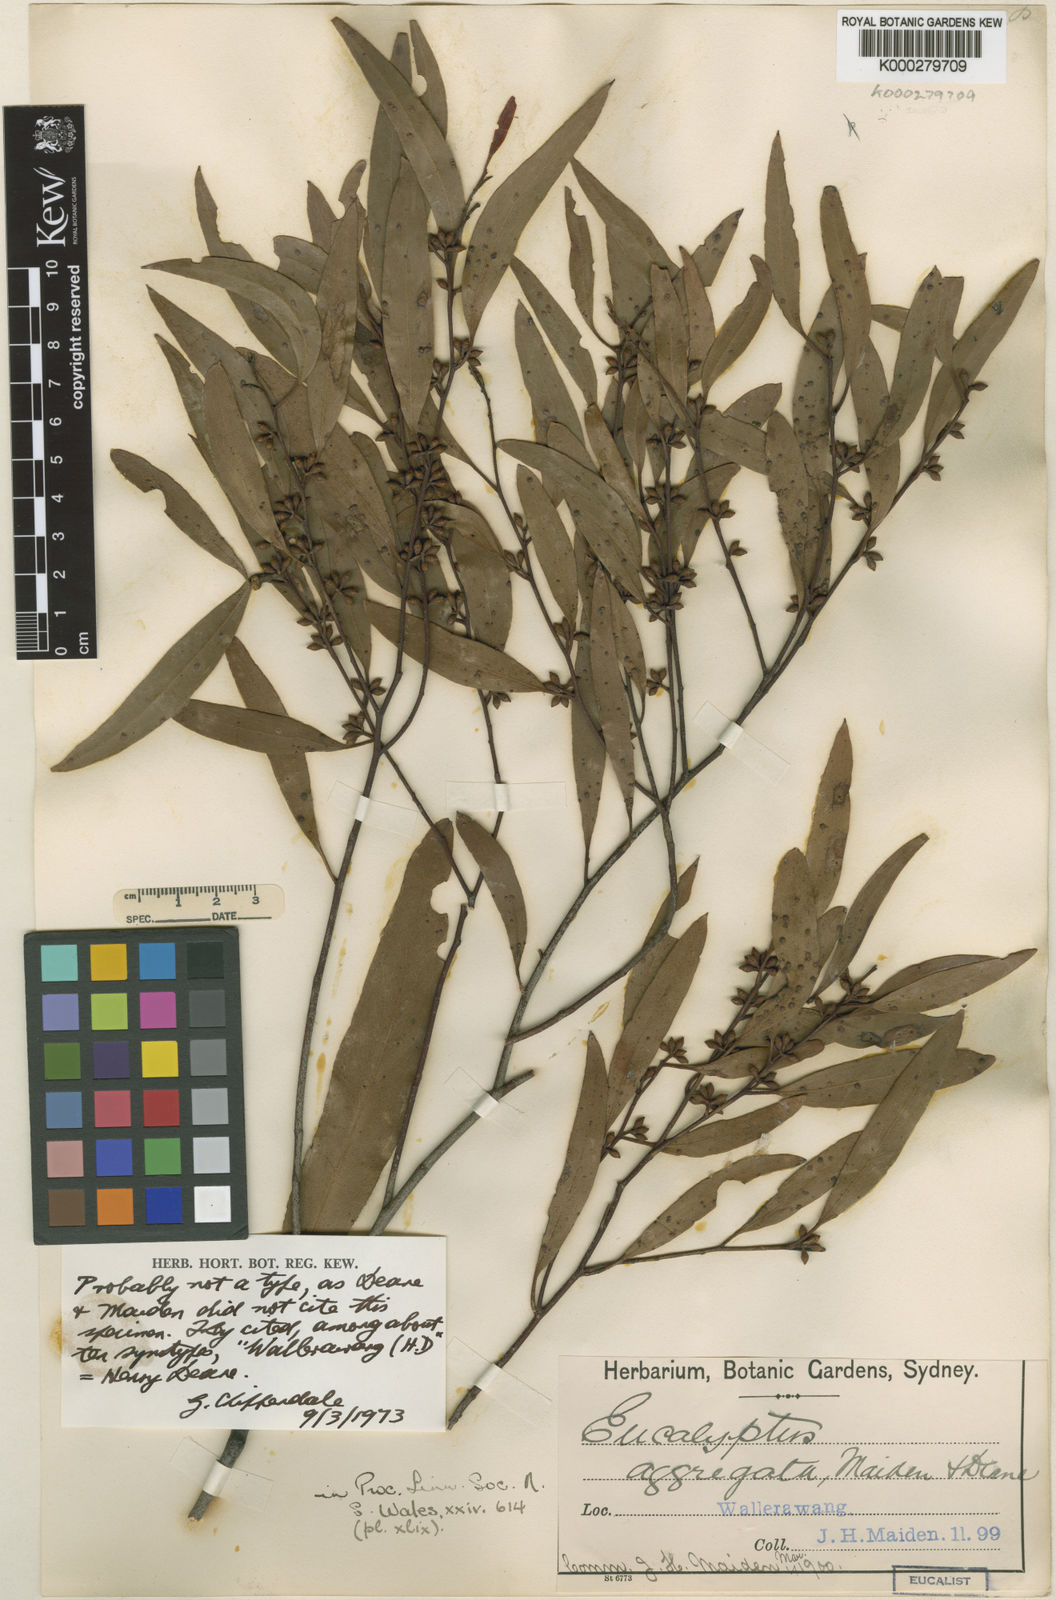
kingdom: Plantae
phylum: Tracheophyta
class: Magnoliopsida
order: Myrtales
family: Myrtaceae
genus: Eucalyptus
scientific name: Eucalyptus aggregata
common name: Black gum
